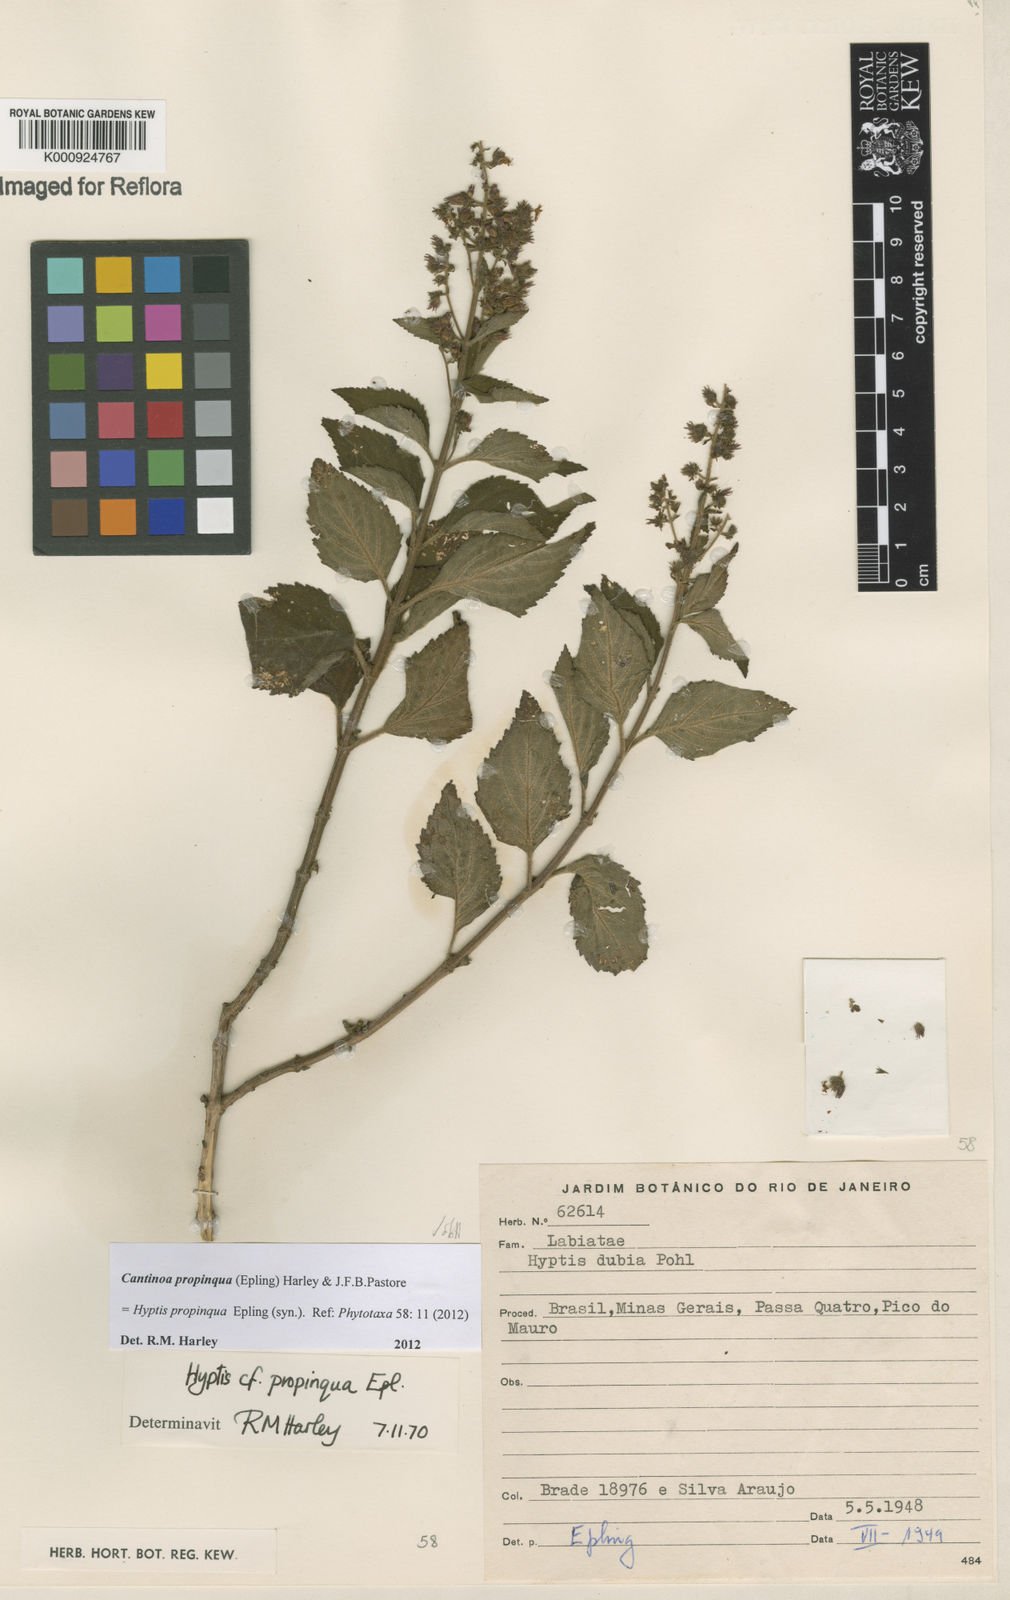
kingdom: Plantae
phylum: Tracheophyta
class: Magnoliopsida
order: Lamiales
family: Lamiaceae
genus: Cantinoa
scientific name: Cantinoa propinqua
